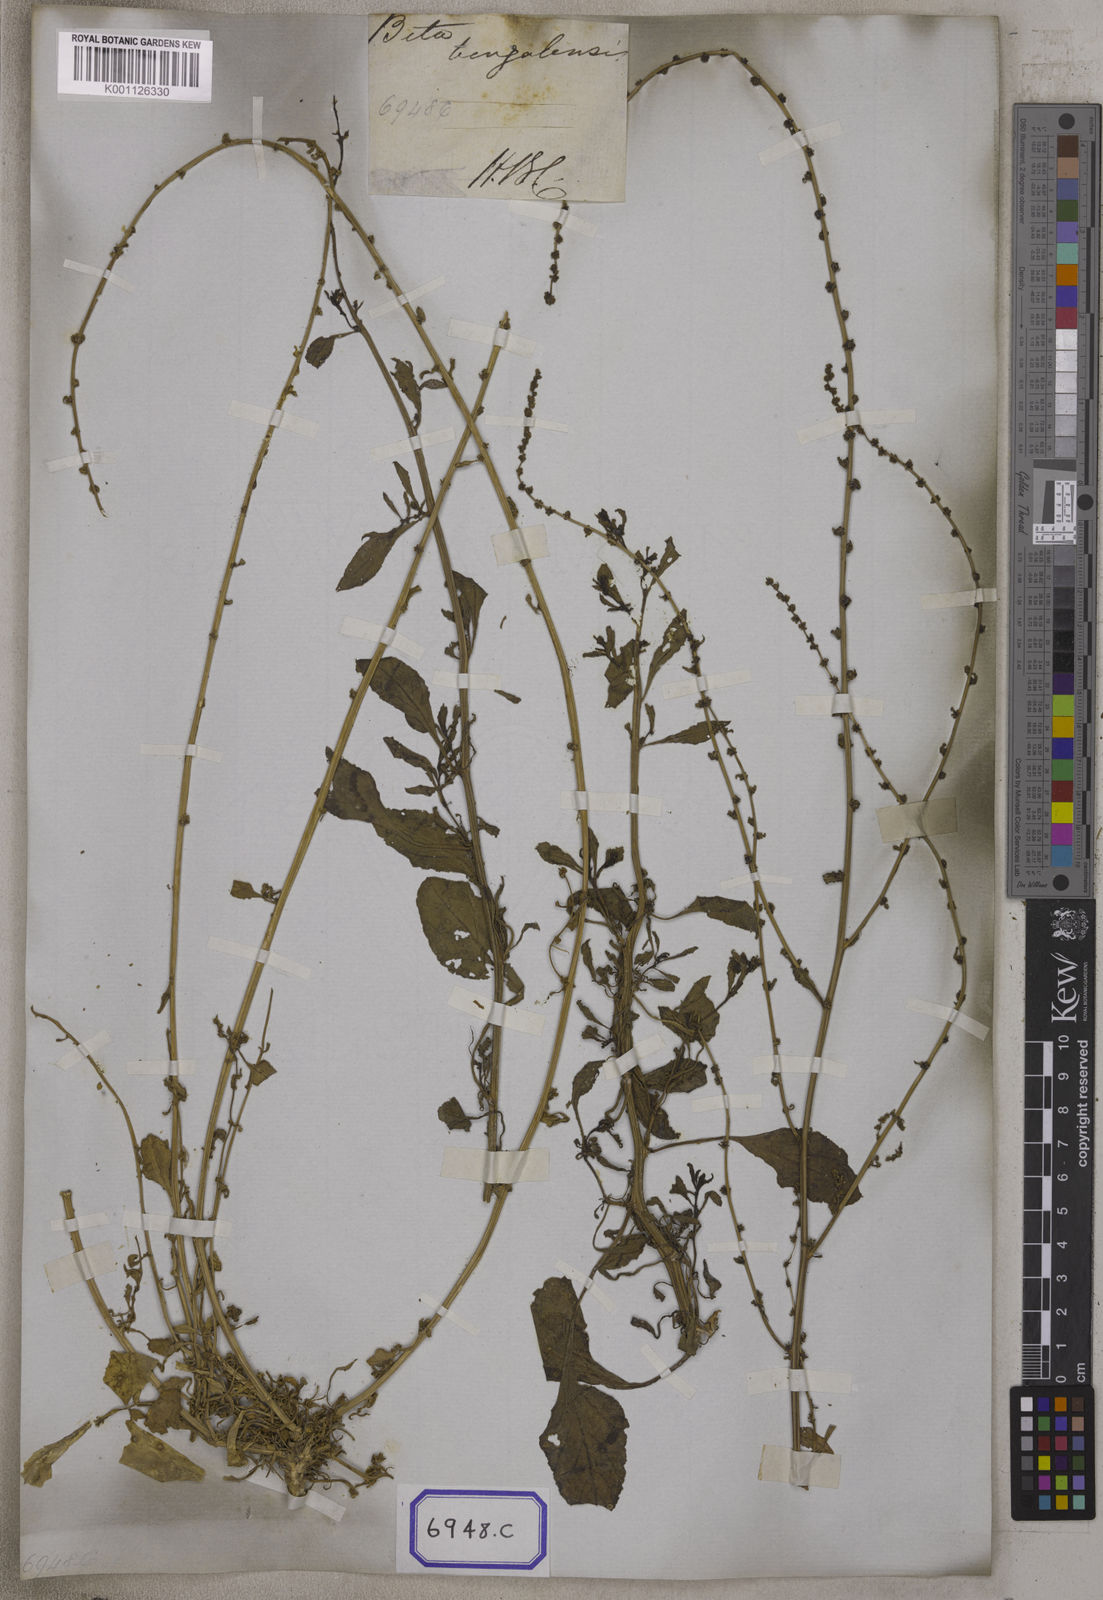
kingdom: Plantae
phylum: Tracheophyta
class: Magnoliopsida
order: Caryophyllales
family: Amaranthaceae
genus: Beta
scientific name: Beta vulgaris
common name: Beet
